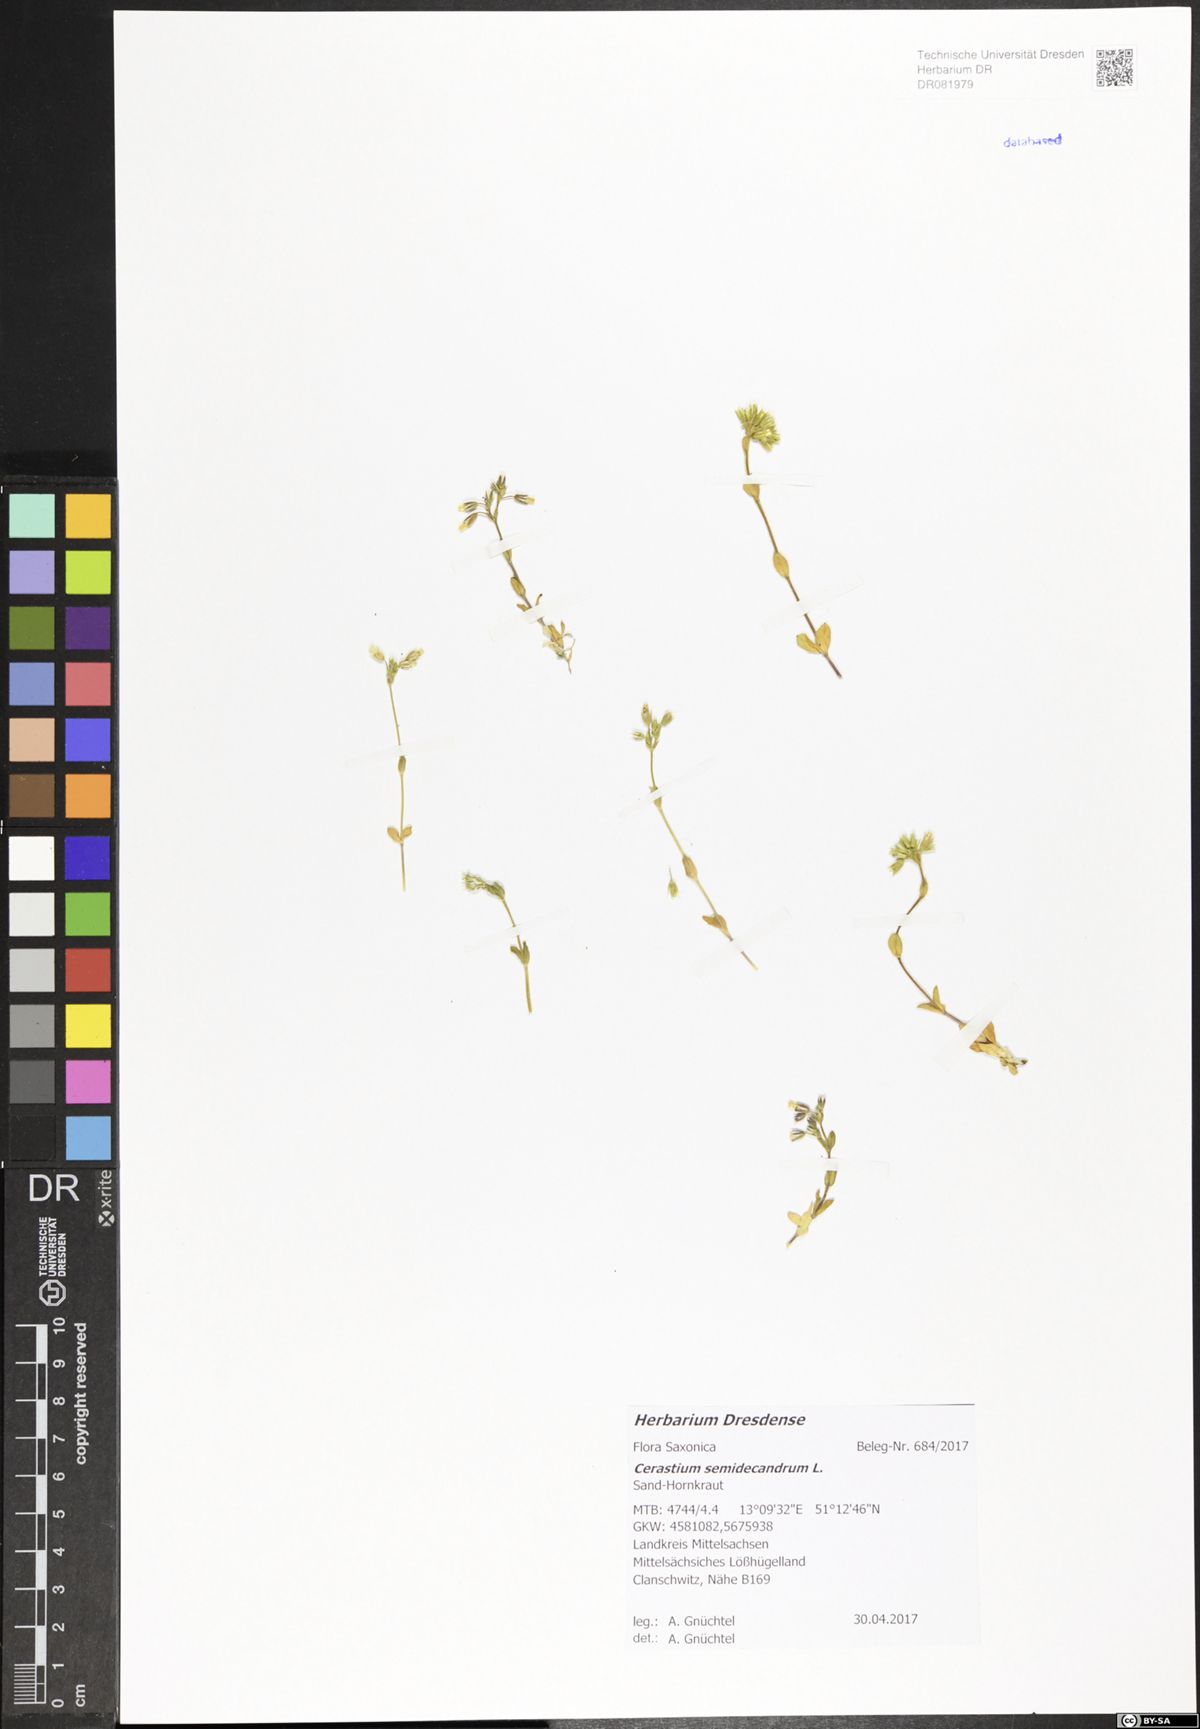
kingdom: Plantae
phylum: Tracheophyta
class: Magnoliopsida
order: Caryophyllales
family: Caryophyllaceae
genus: Cerastium
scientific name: Cerastium semidecandrum
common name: Little mouse-ear
